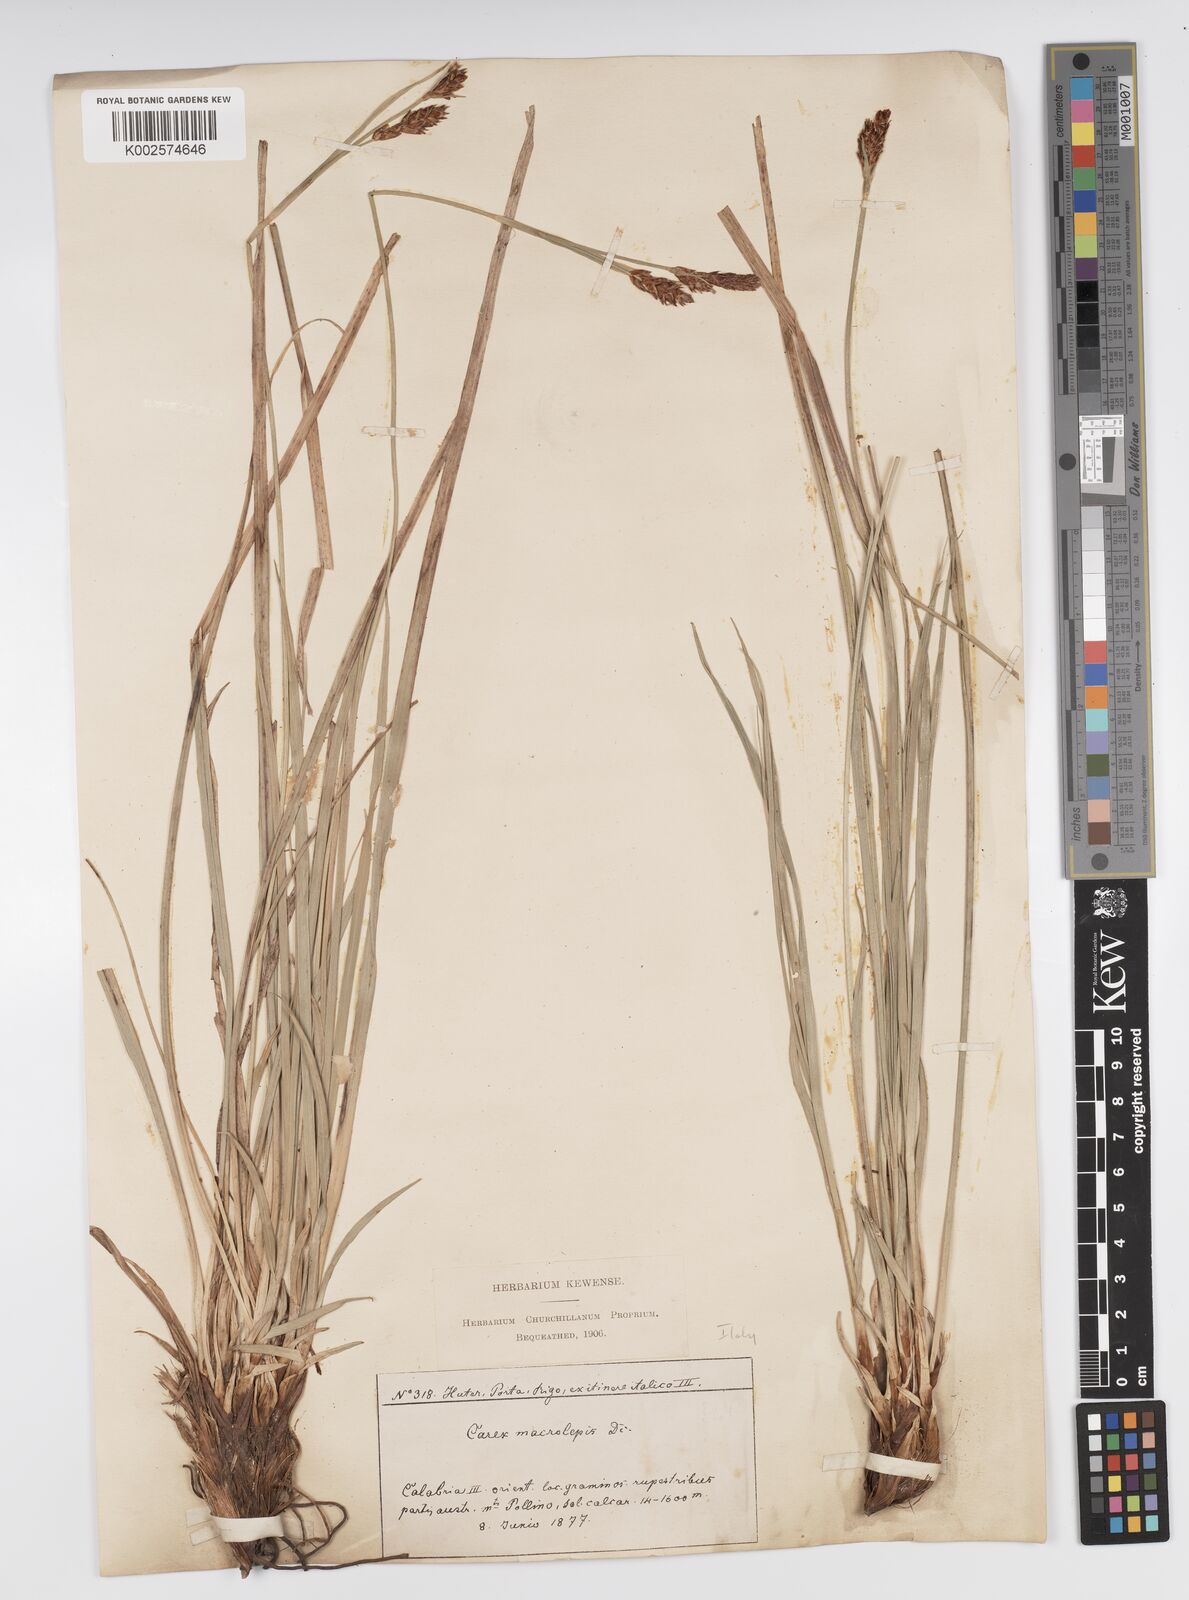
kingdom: Plantae
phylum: Tracheophyta
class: Liliopsida
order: Poales
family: Cyperaceae
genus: Carex
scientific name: Carex macrolepis
